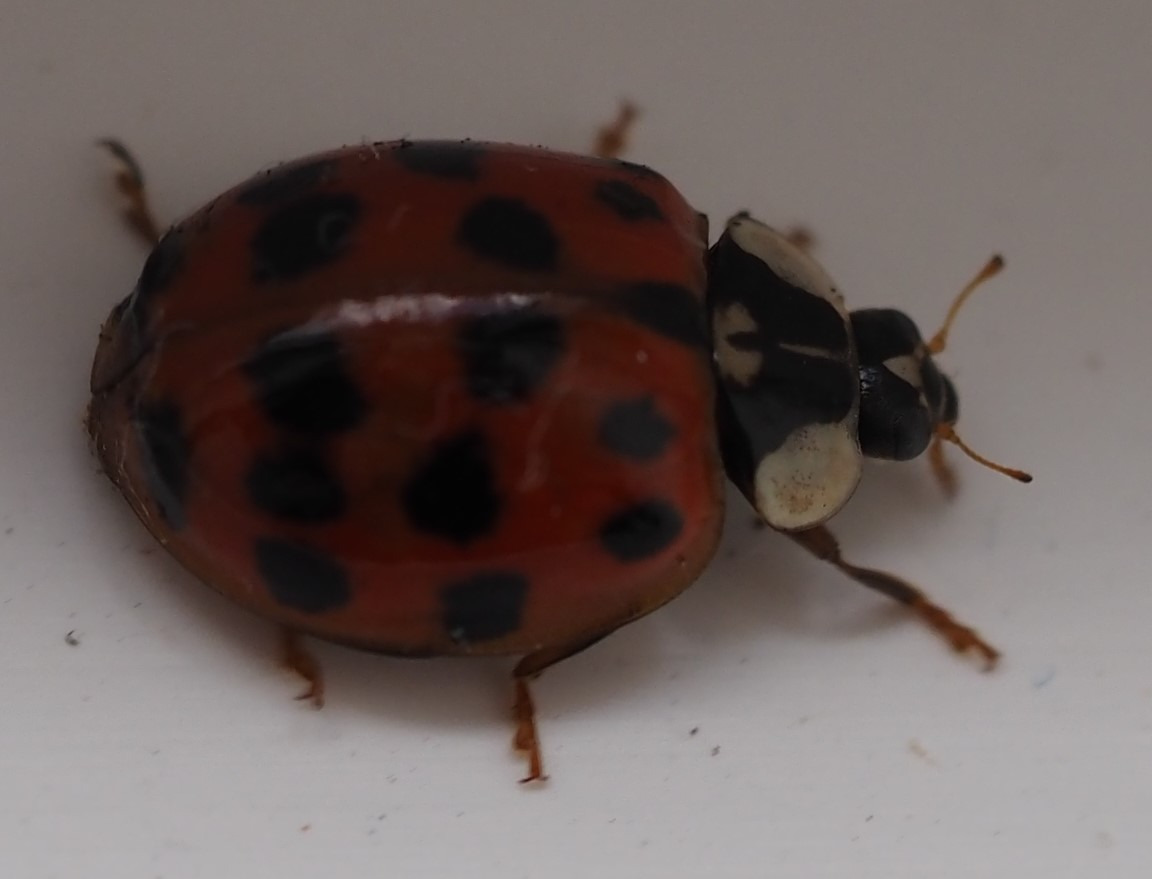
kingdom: Animalia
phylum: Arthropoda
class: Insecta
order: Coleoptera
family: Coccinellidae
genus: Harmonia
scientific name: Harmonia axyridis
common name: Harlekinmariehøne
